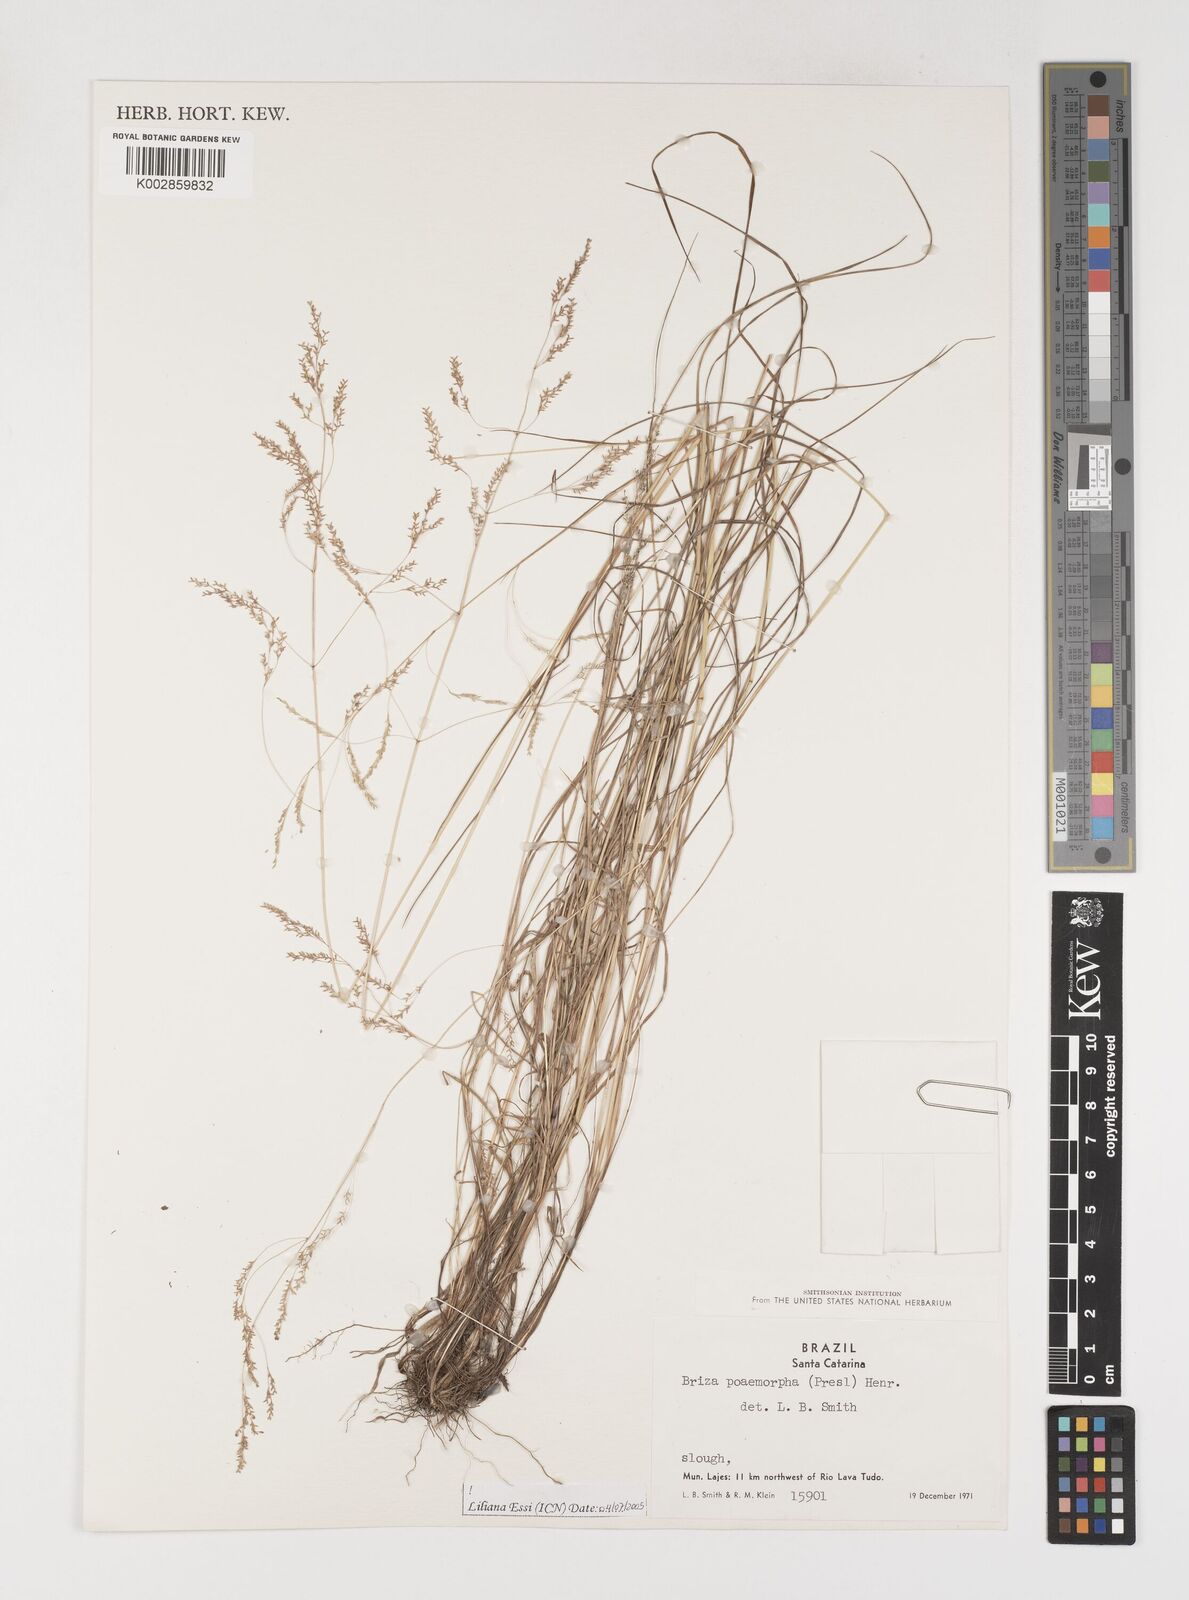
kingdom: Plantae
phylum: Tracheophyta
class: Liliopsida
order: Poales
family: Poaceae
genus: Microbriza
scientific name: Microbriza poimorpha
